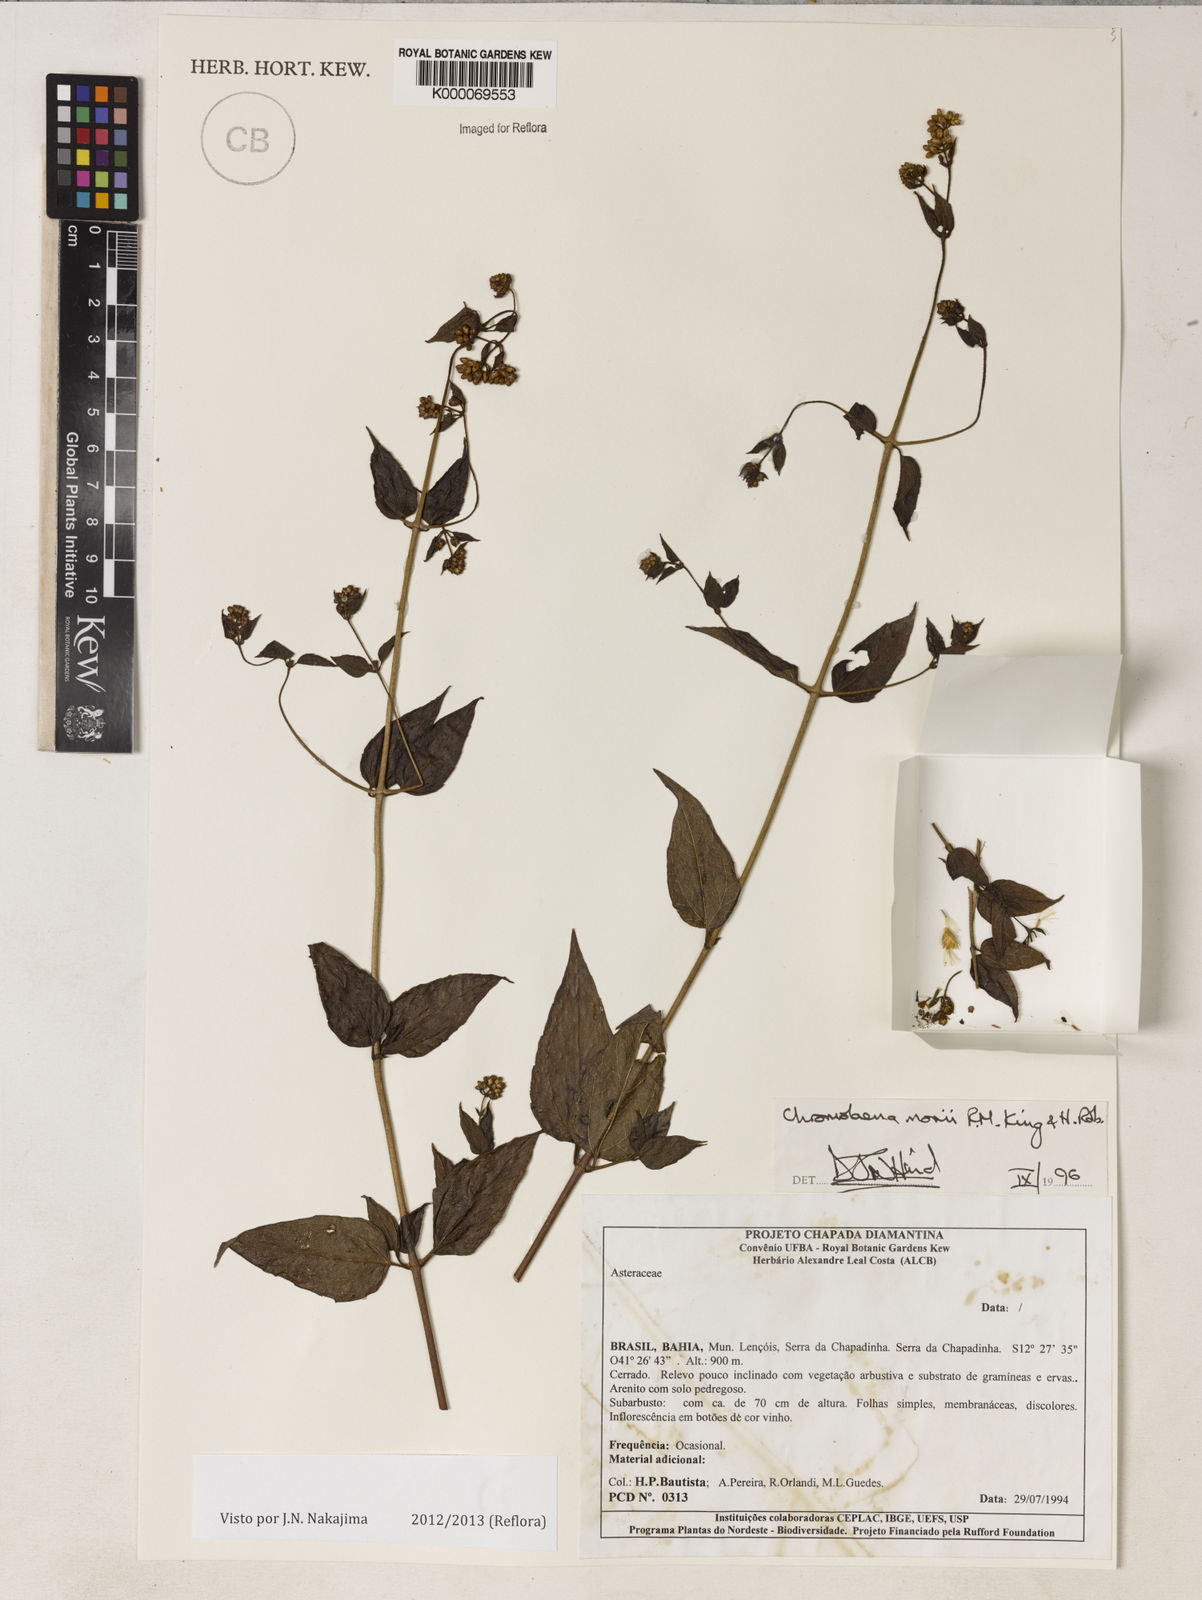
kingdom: Plantae
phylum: Tracheophyta
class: Magnoliopsida
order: Asterales
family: Asteraceae
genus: Chromolaena
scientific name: Chromolaena morii
